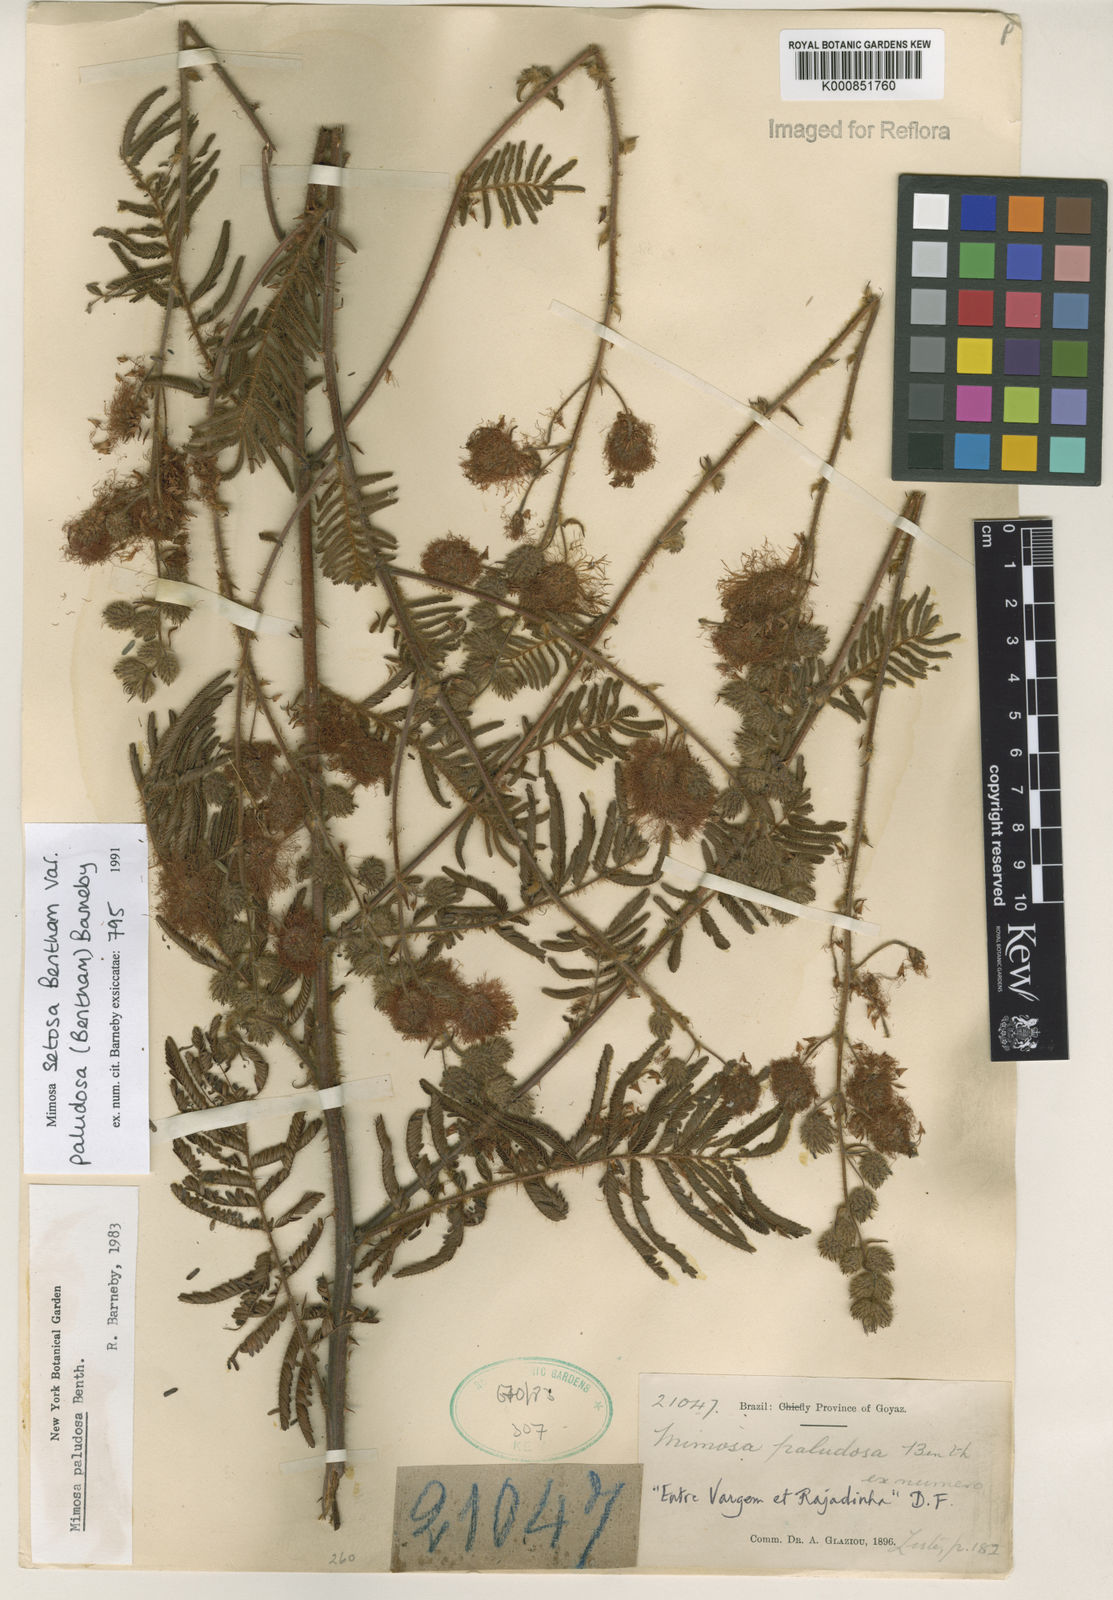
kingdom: Plantae
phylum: Tracheophyta
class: Magnoliopsida
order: Fabales
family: Fabaceae
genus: Mimosa
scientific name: Mimosa paludosa
